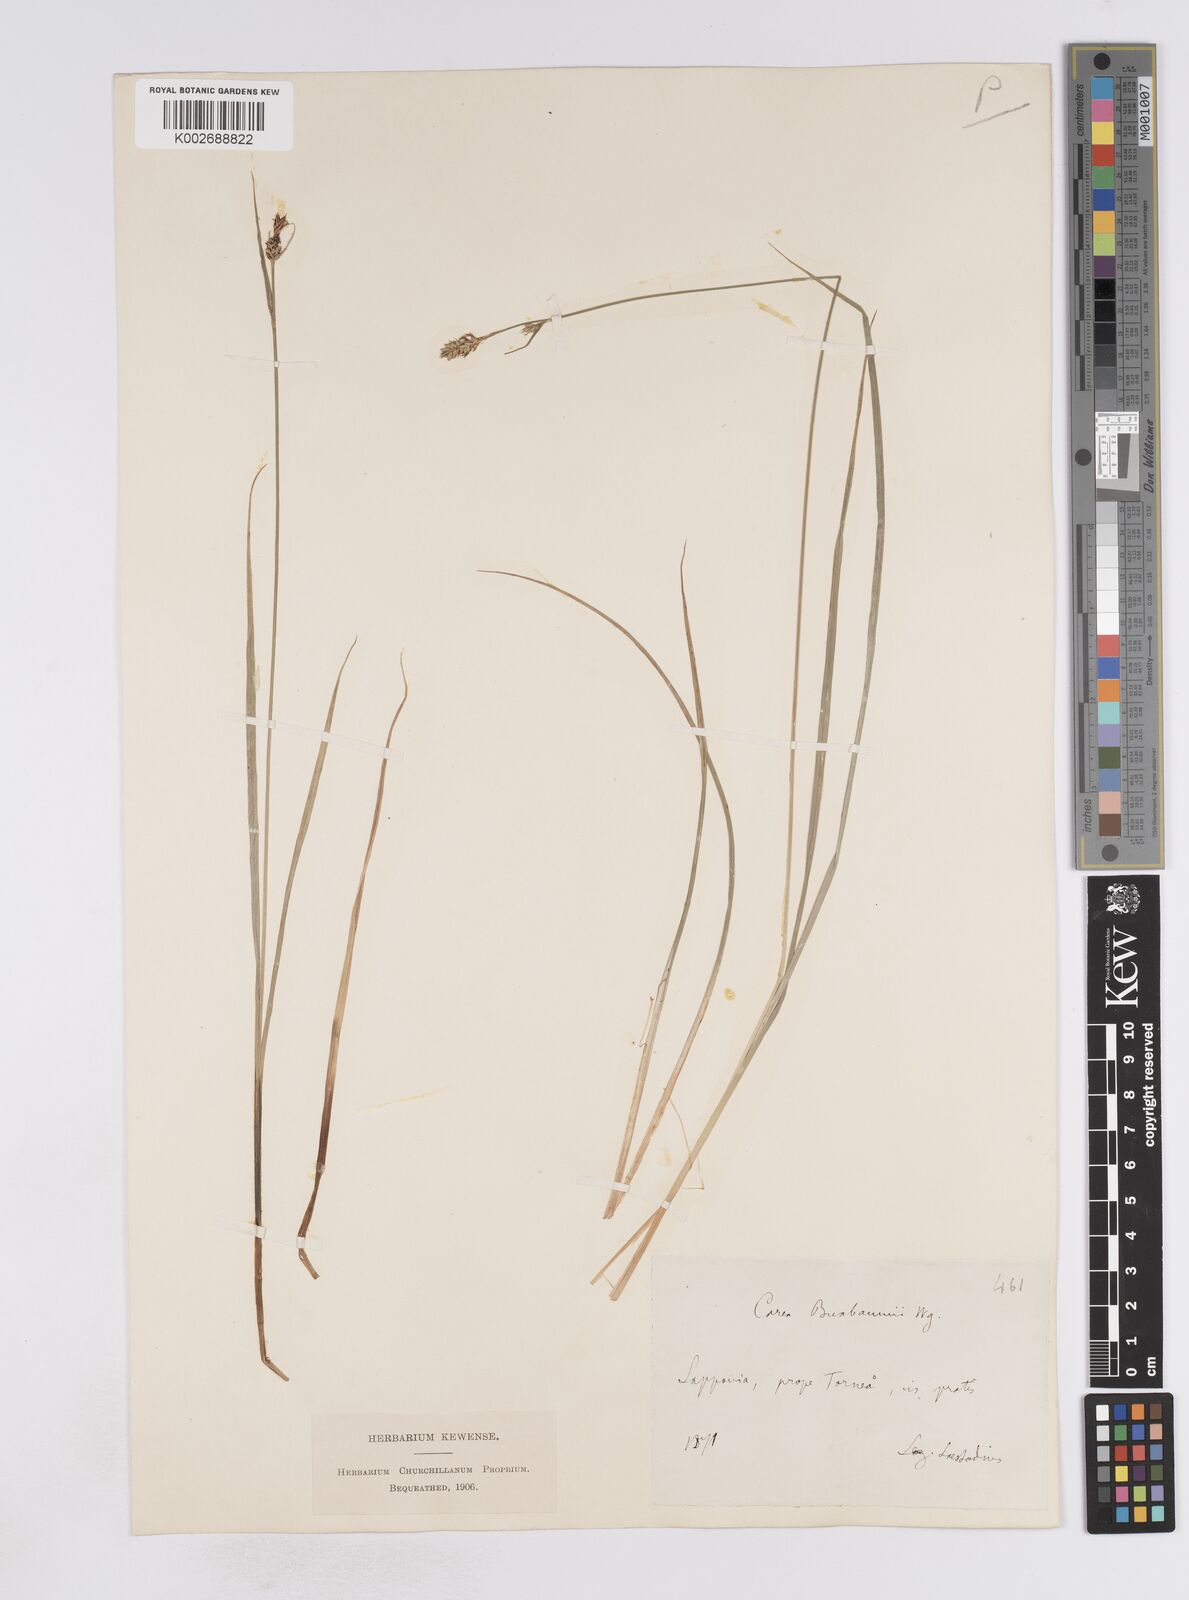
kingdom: Plantae
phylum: Tracheophyta
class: Liliopsida
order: Poales
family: Cyperaceae
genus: Carex
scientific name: Carex buxbaumii
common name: Club sedge
